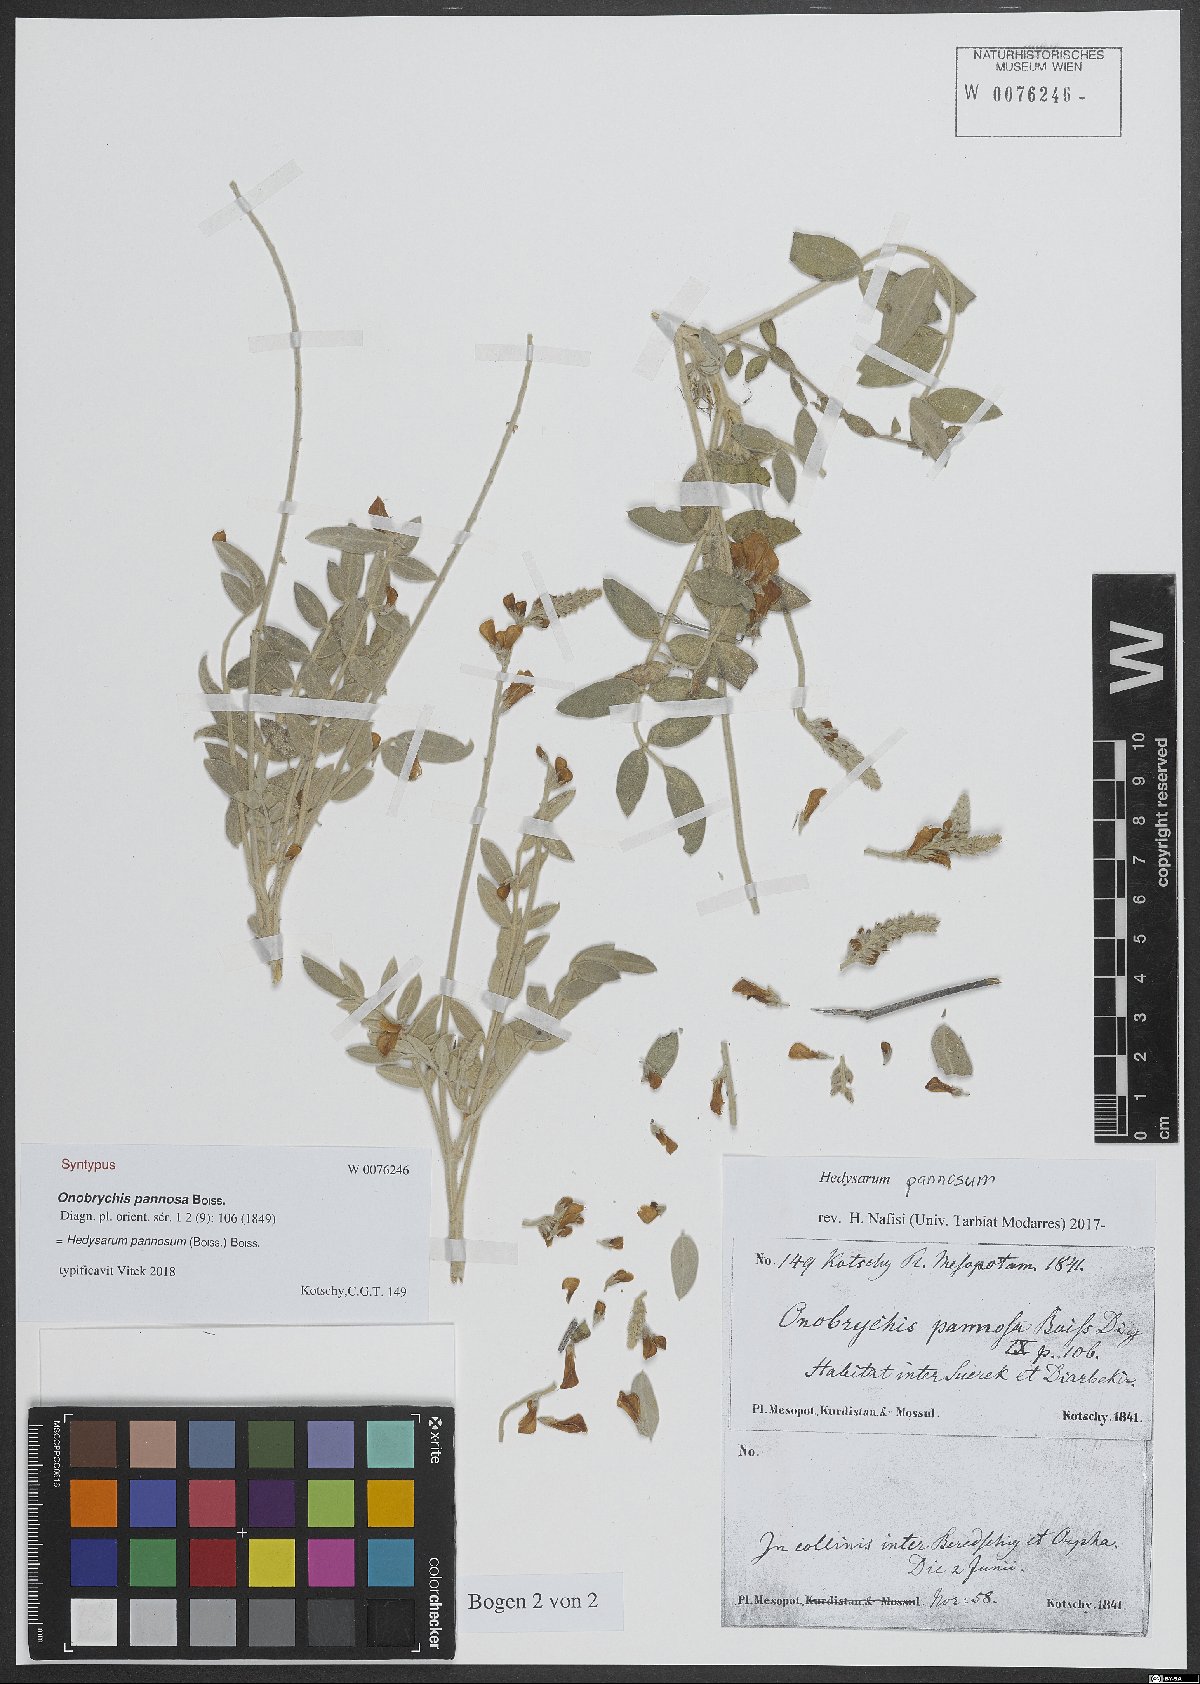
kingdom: Plantae
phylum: Tracheophyta
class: Magnoliopsida
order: Fabales
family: Fabaceae
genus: Hedysarum
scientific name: Hedysarum pannosum
